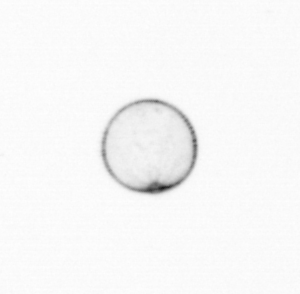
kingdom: Chromista
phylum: Ochrophyta
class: Bacillariophyceae
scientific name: Bacillariophyceae
